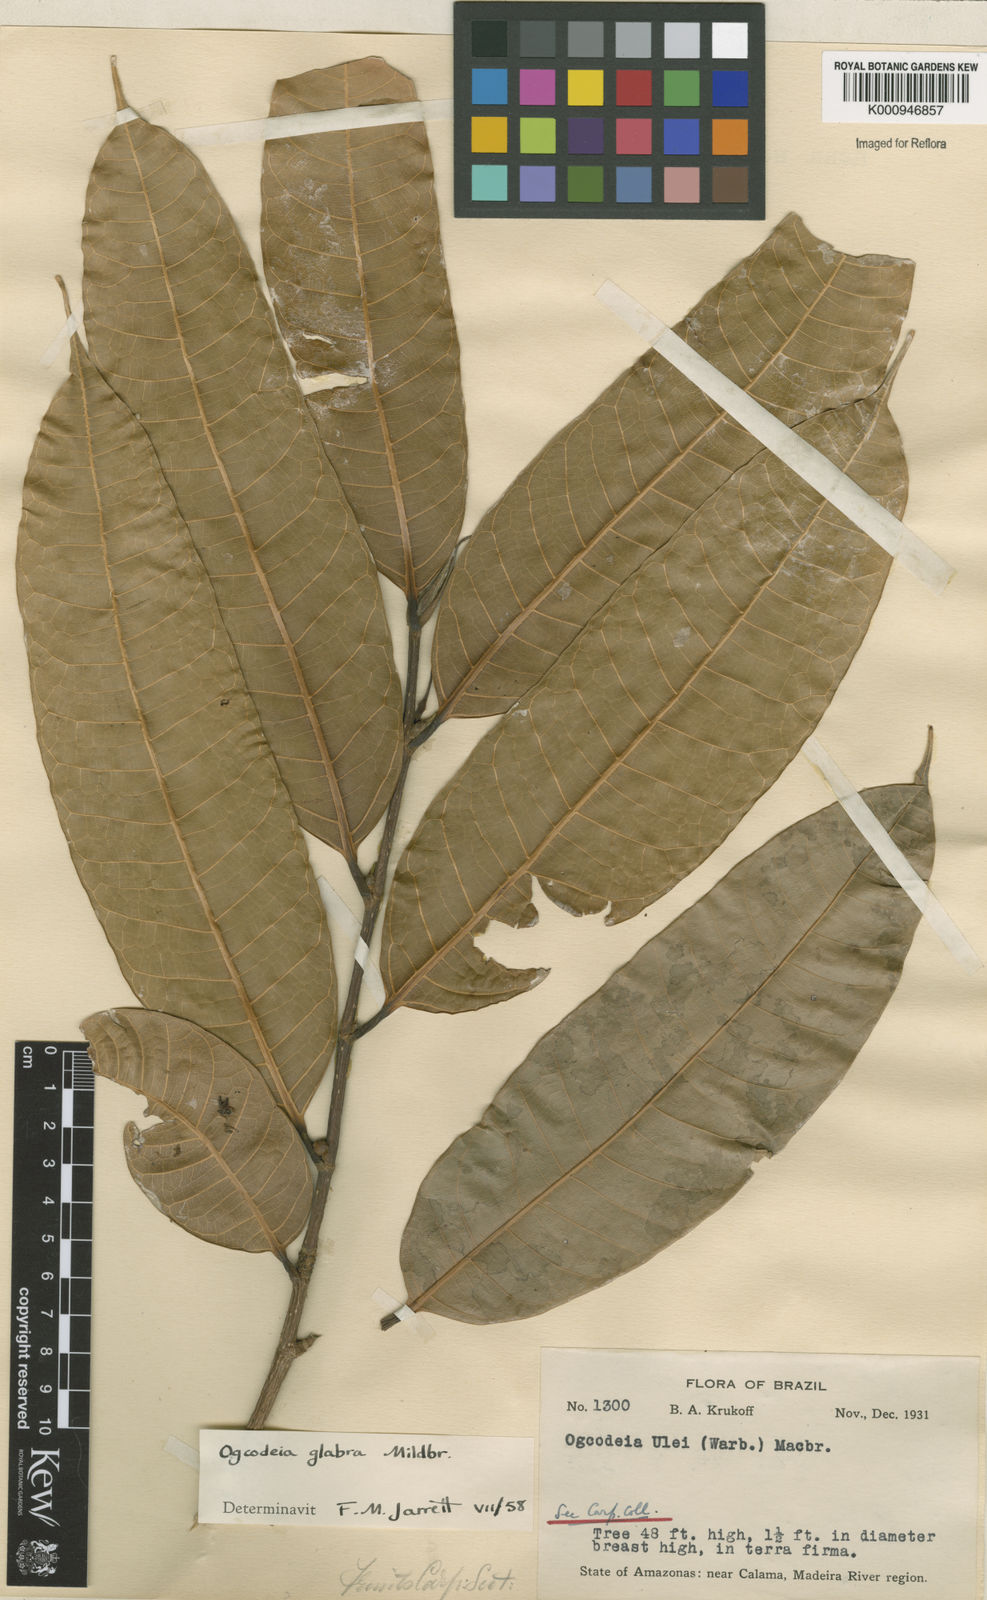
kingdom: Plantae
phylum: Tracheophyta
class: Magnoliopsida
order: Rosales
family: Moraceae
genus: Naucleopsis
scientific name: Naucleopsis glabra
